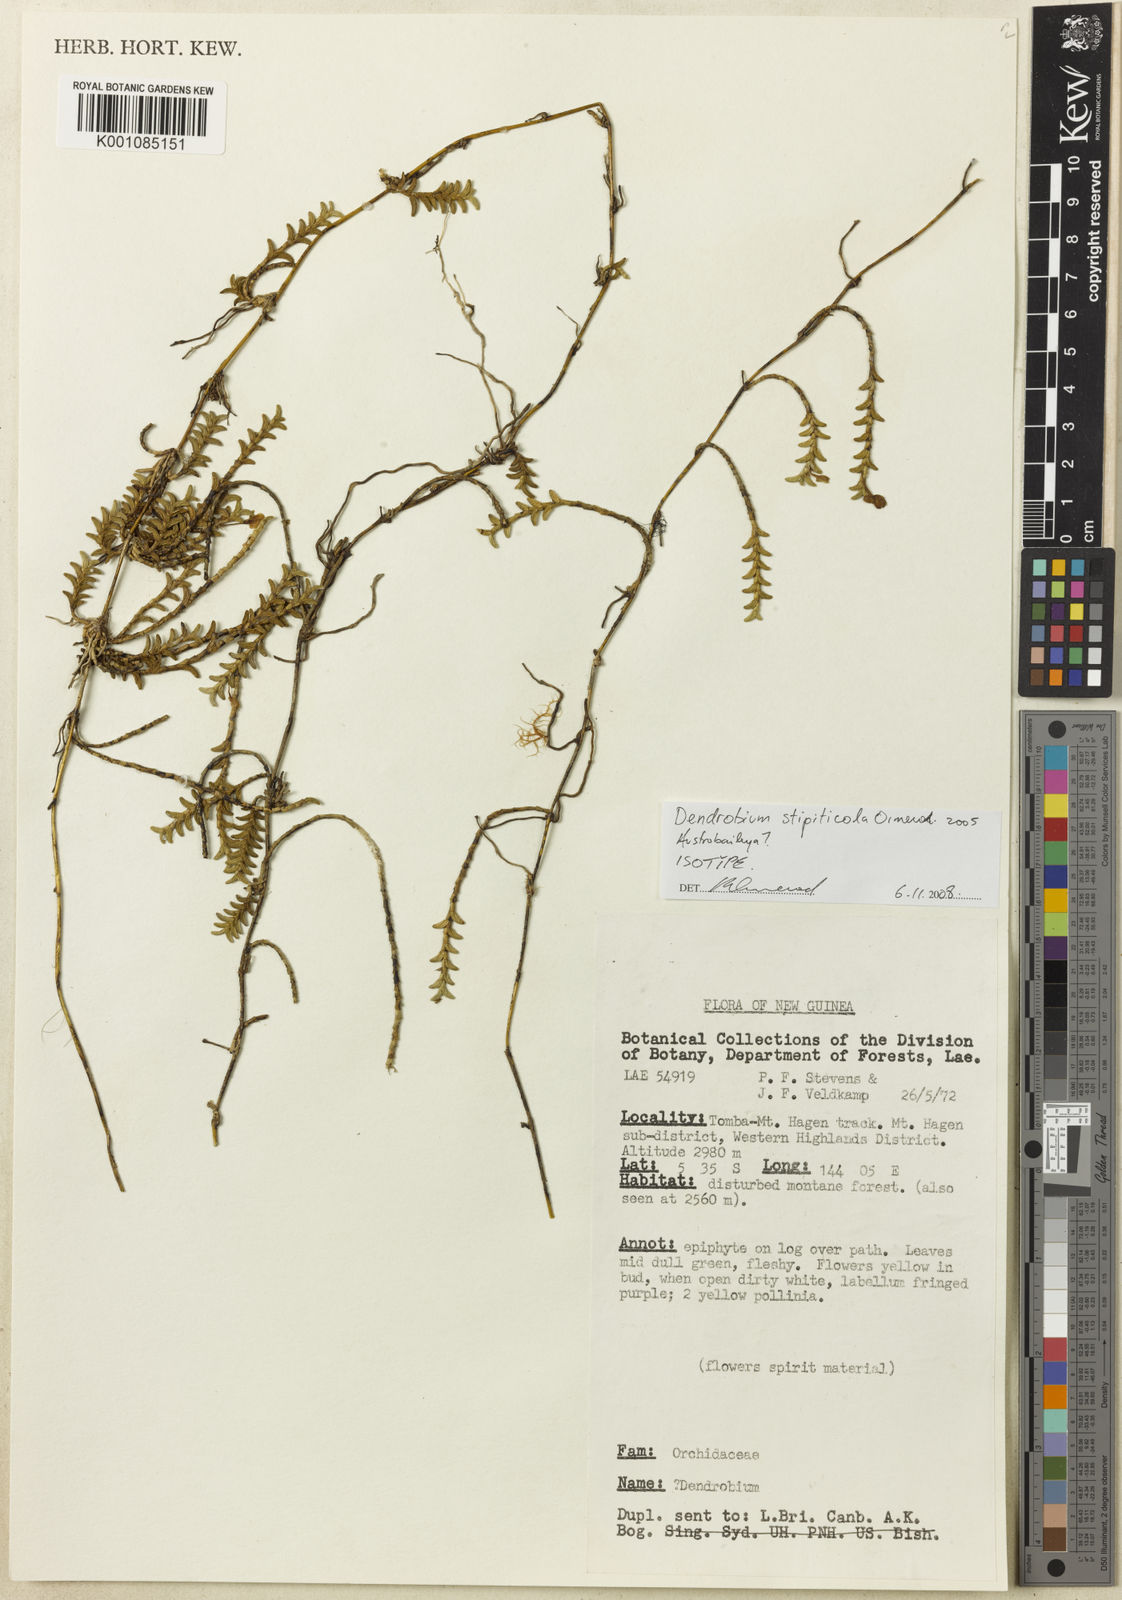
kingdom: Plantae
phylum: Tracheophyta
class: Liliopsida
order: Asparagales
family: Orchidaceae
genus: Dendrobium
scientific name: Dendrobium stipiticola
